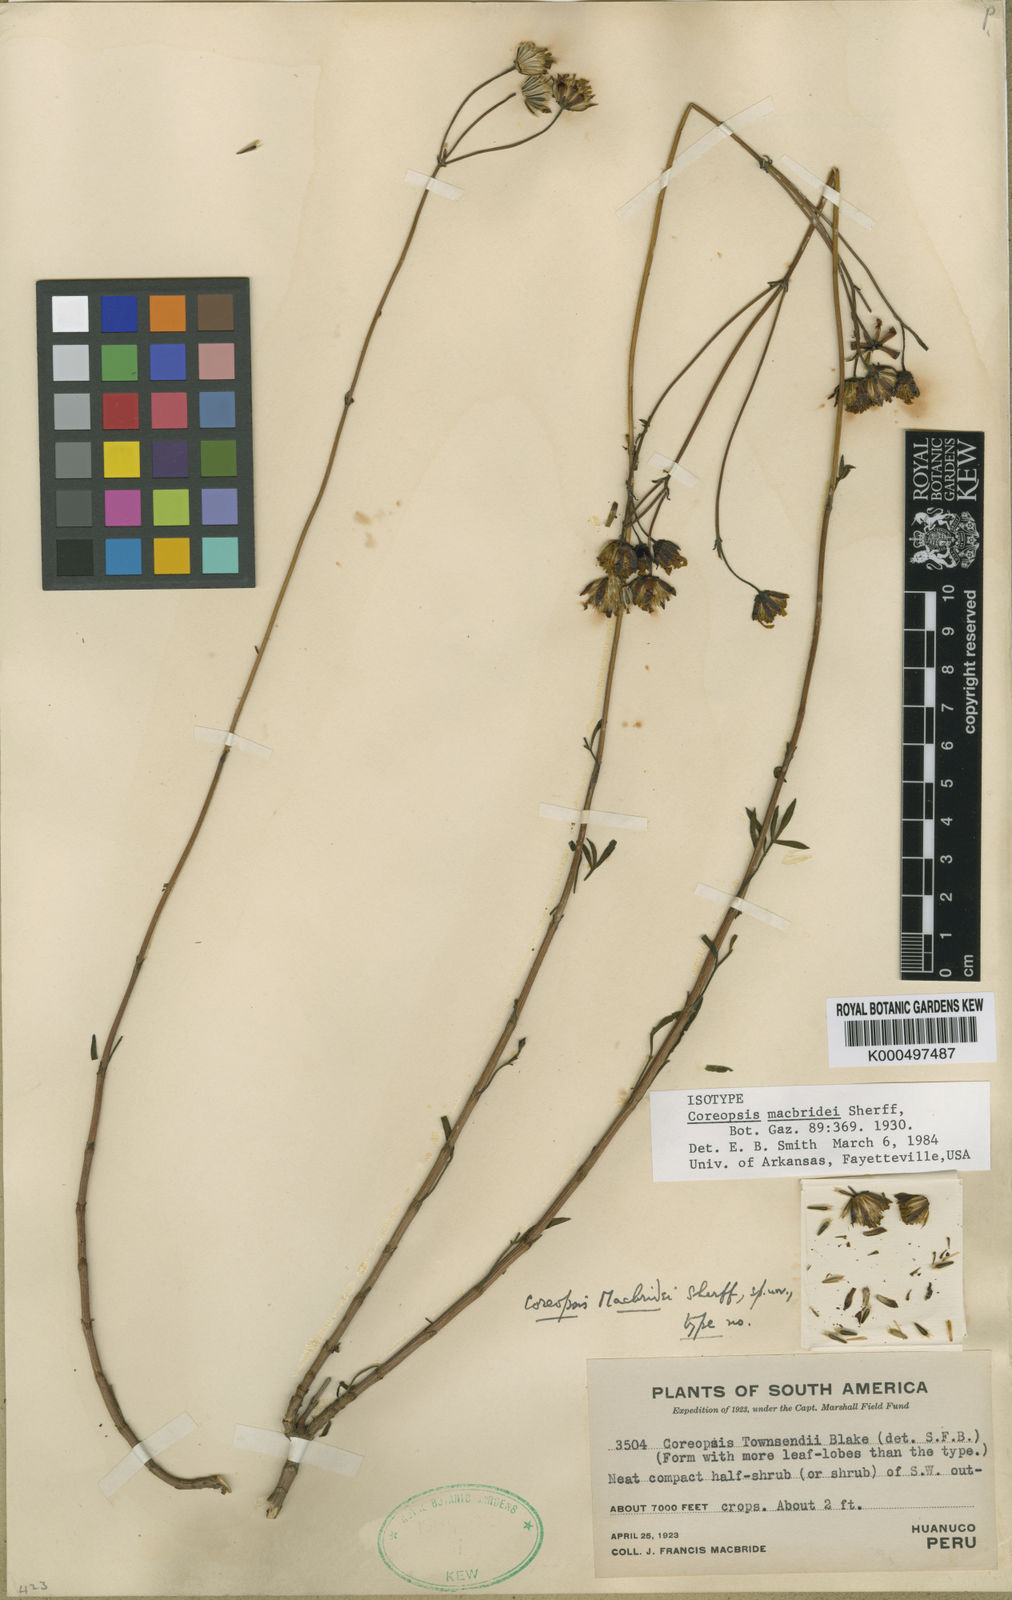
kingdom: Plantae
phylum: Tracheophyta
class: Magnoliopsida
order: Asterales
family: Asteraceae
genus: Coreopsis
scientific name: Coreopsis macbridei
